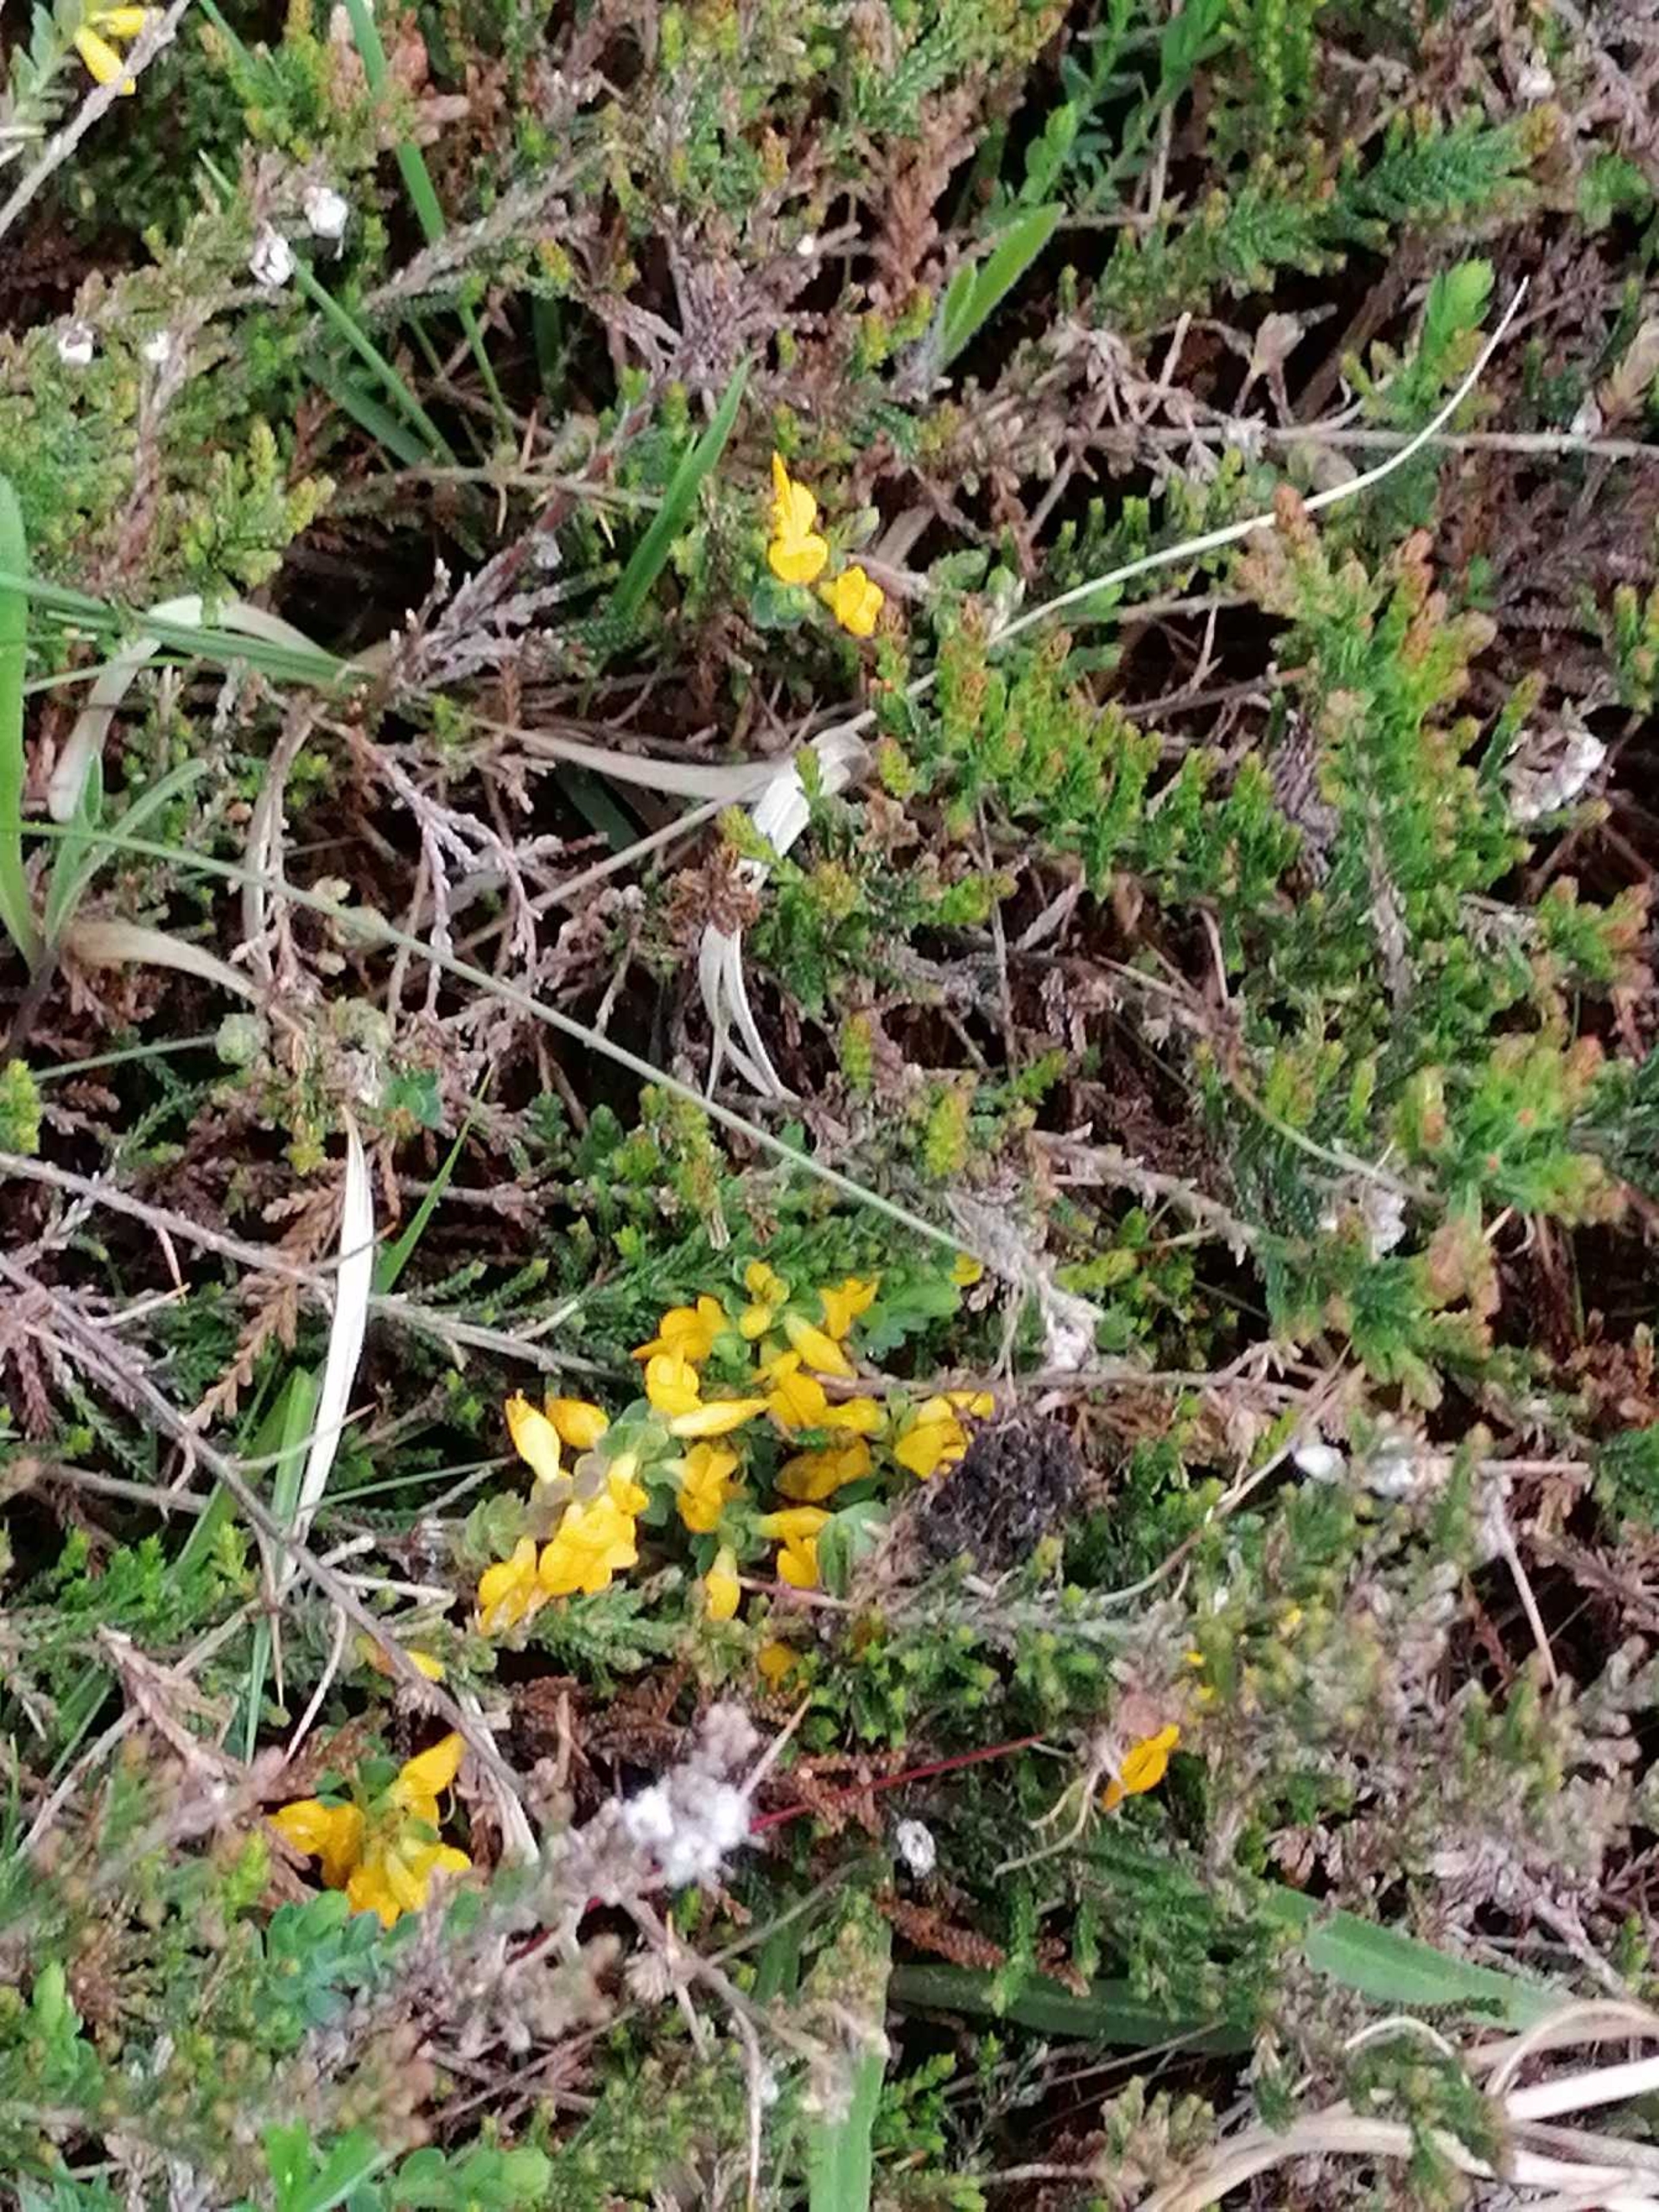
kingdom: Plantae
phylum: Tracheophyta
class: Magnoliopsida
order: Fabales
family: Fabaceae
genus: Genista
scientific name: Genista anglica
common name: Engelsk visse
